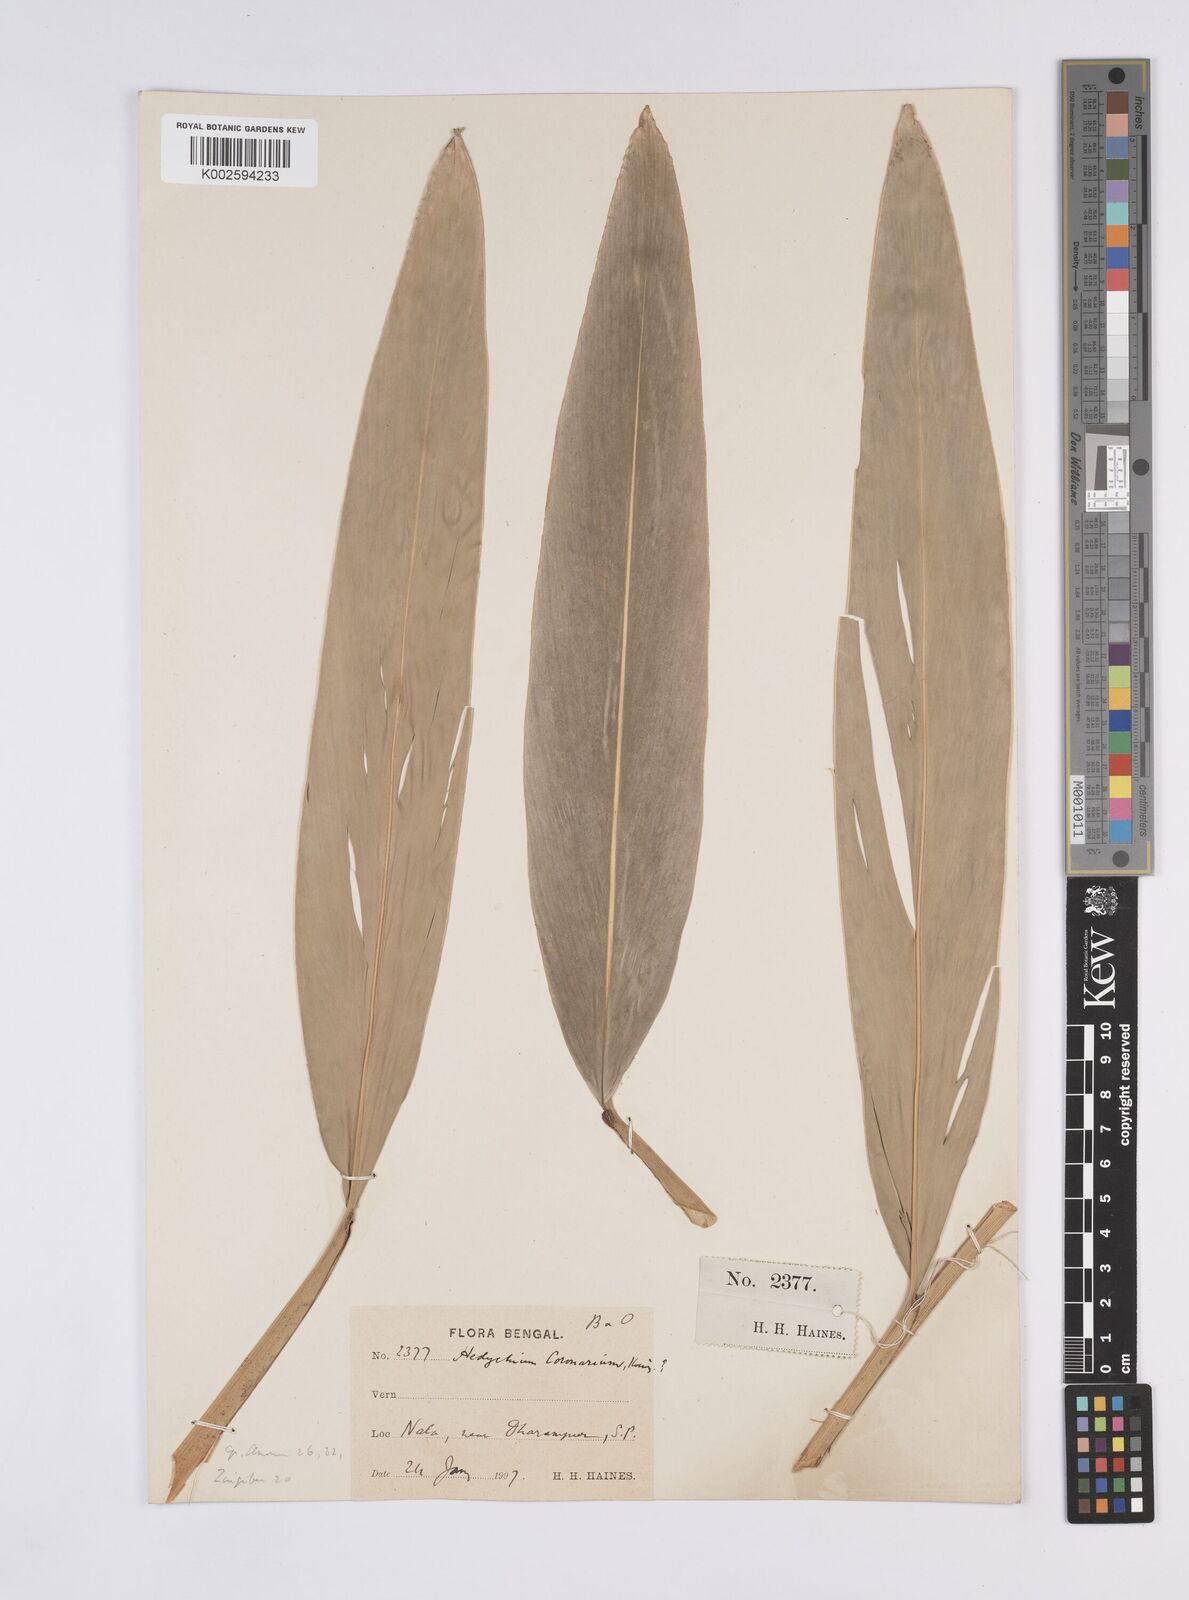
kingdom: Plantae
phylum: Tracheophyta
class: Liliopsida
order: Zingiberales
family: Zingiberaceae
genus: Hedychium
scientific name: Hedychium coronarium
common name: White garland-lily
